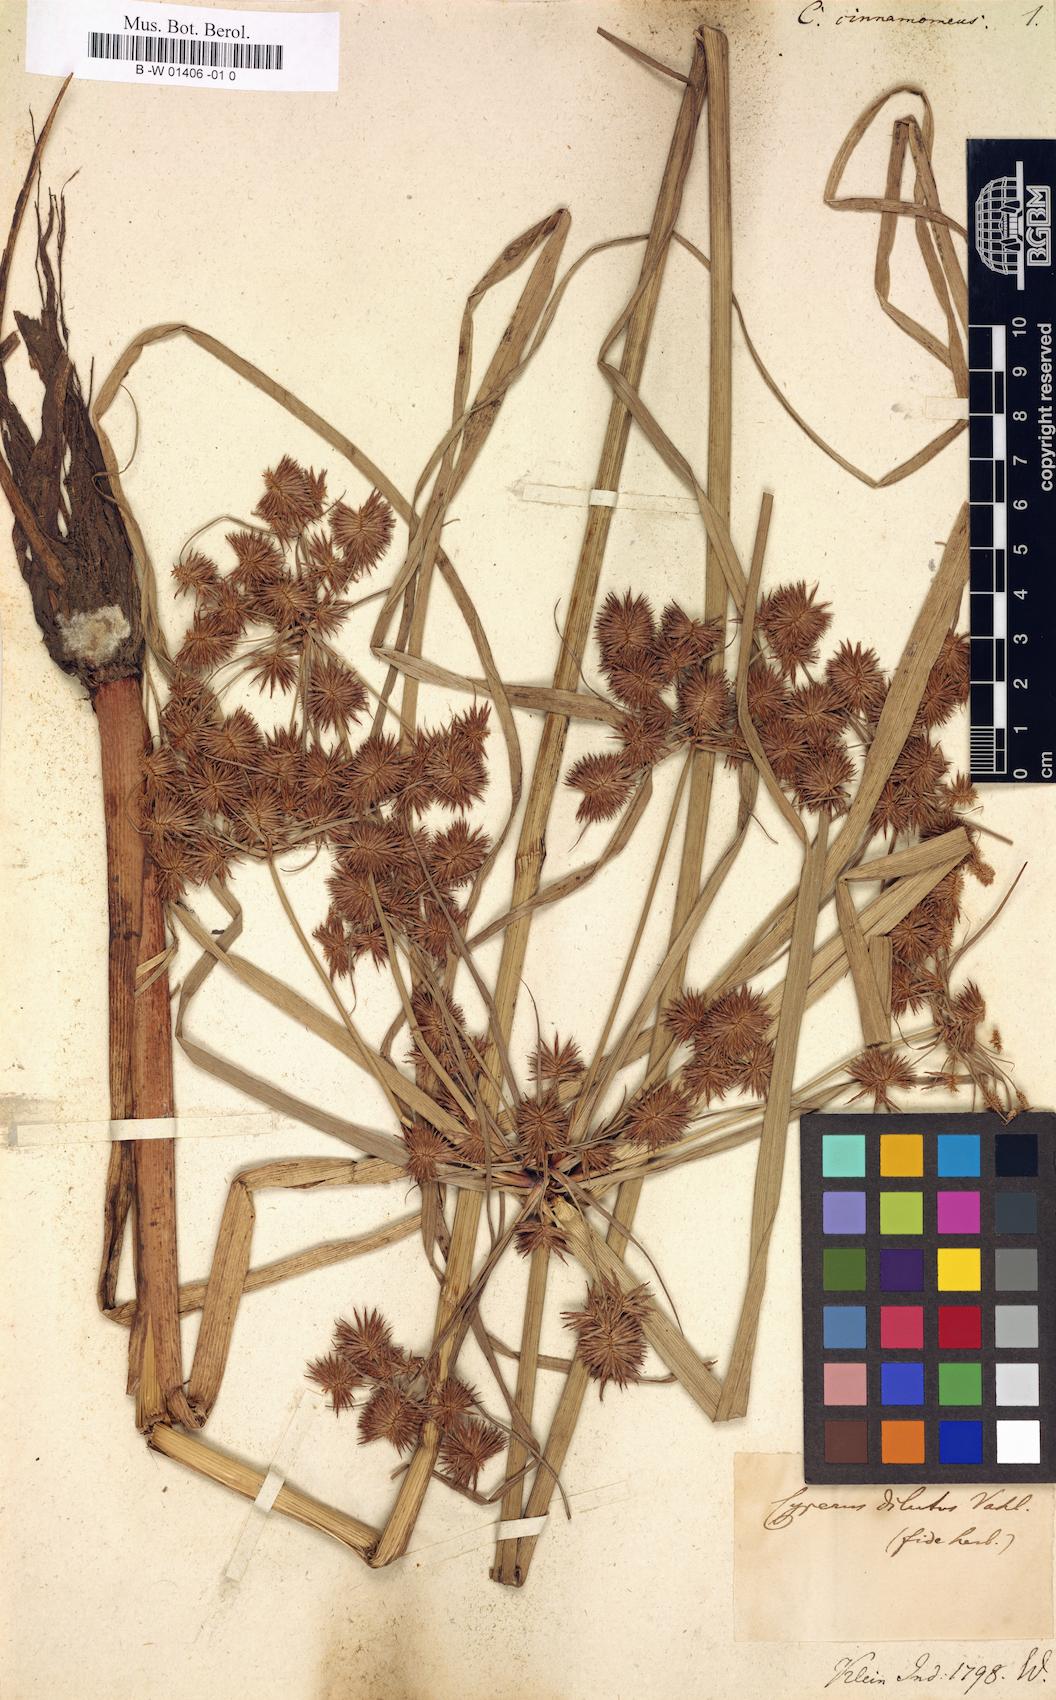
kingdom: Plantae
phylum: Tracheophyta
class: Liliopsida
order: Poales
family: Cyperaceae
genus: Cyperus
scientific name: Cyperus glomeratus
